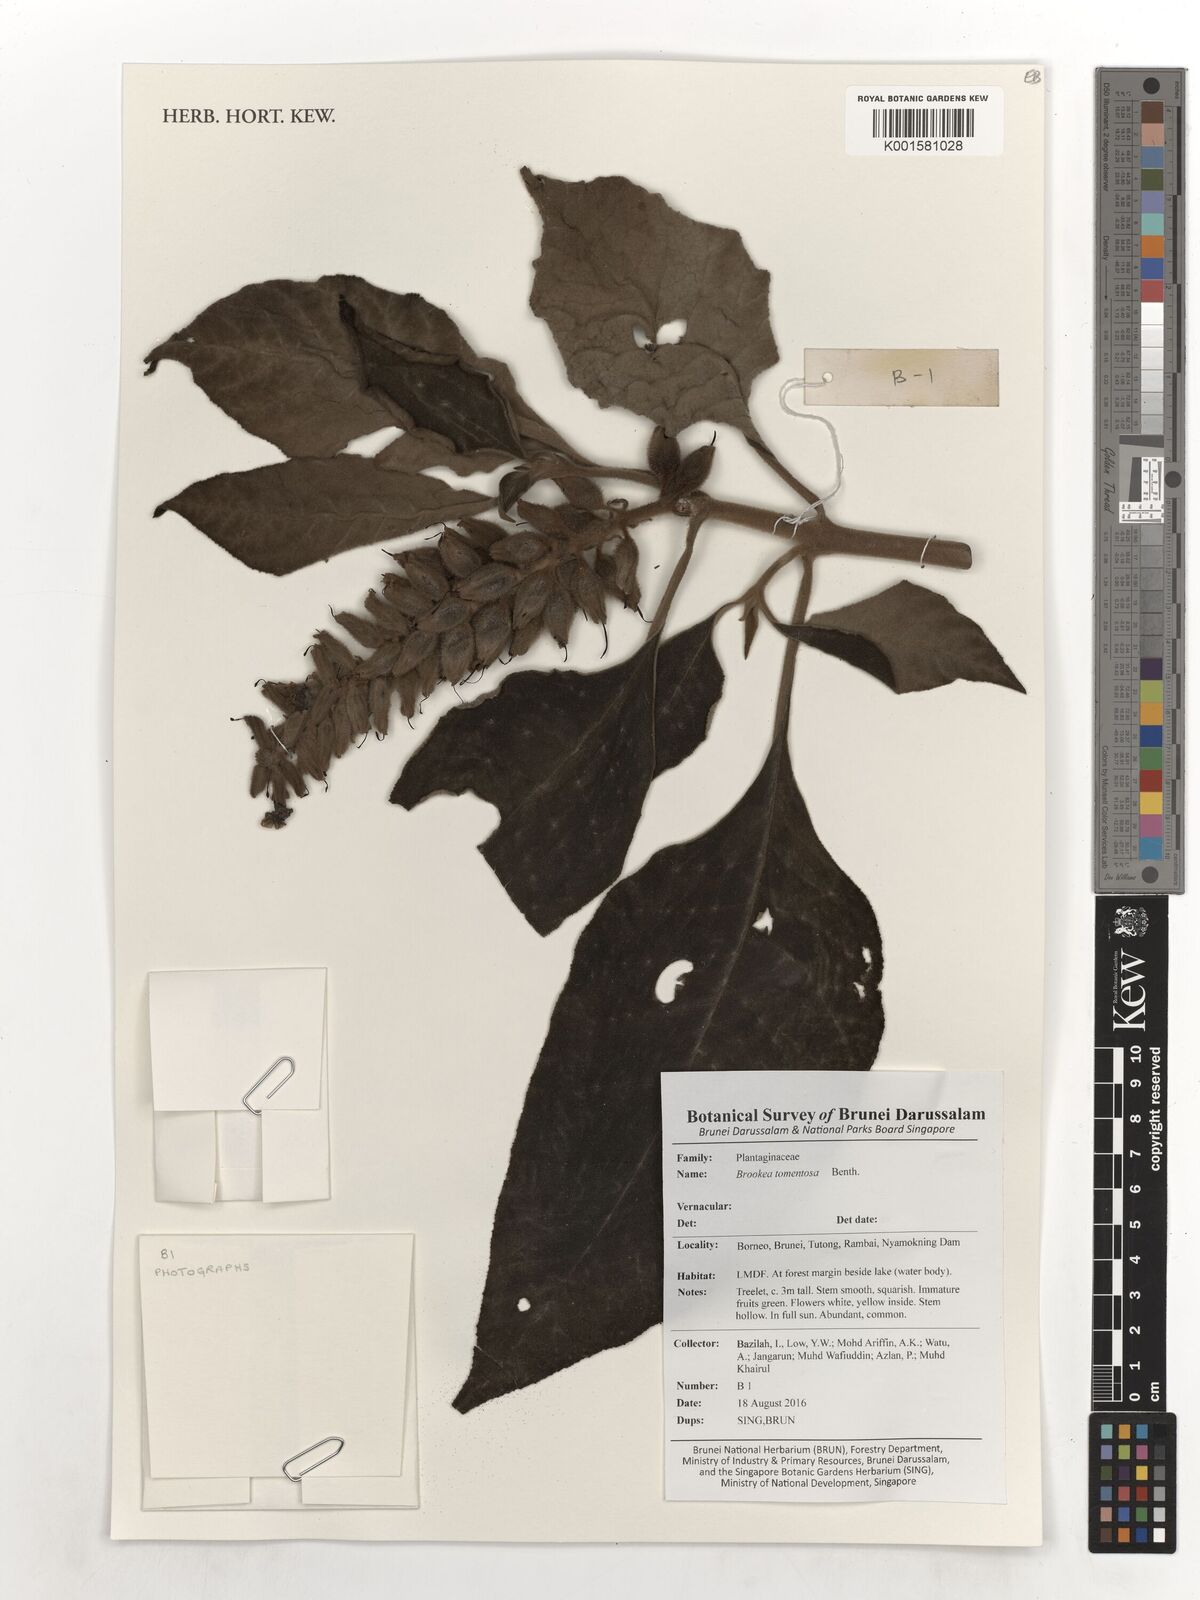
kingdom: Plantae
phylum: Tracheophyta
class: Magnoliopsida
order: Lamiales
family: Plantaginaceae
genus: Brookea
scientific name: Brookea tomentosa
